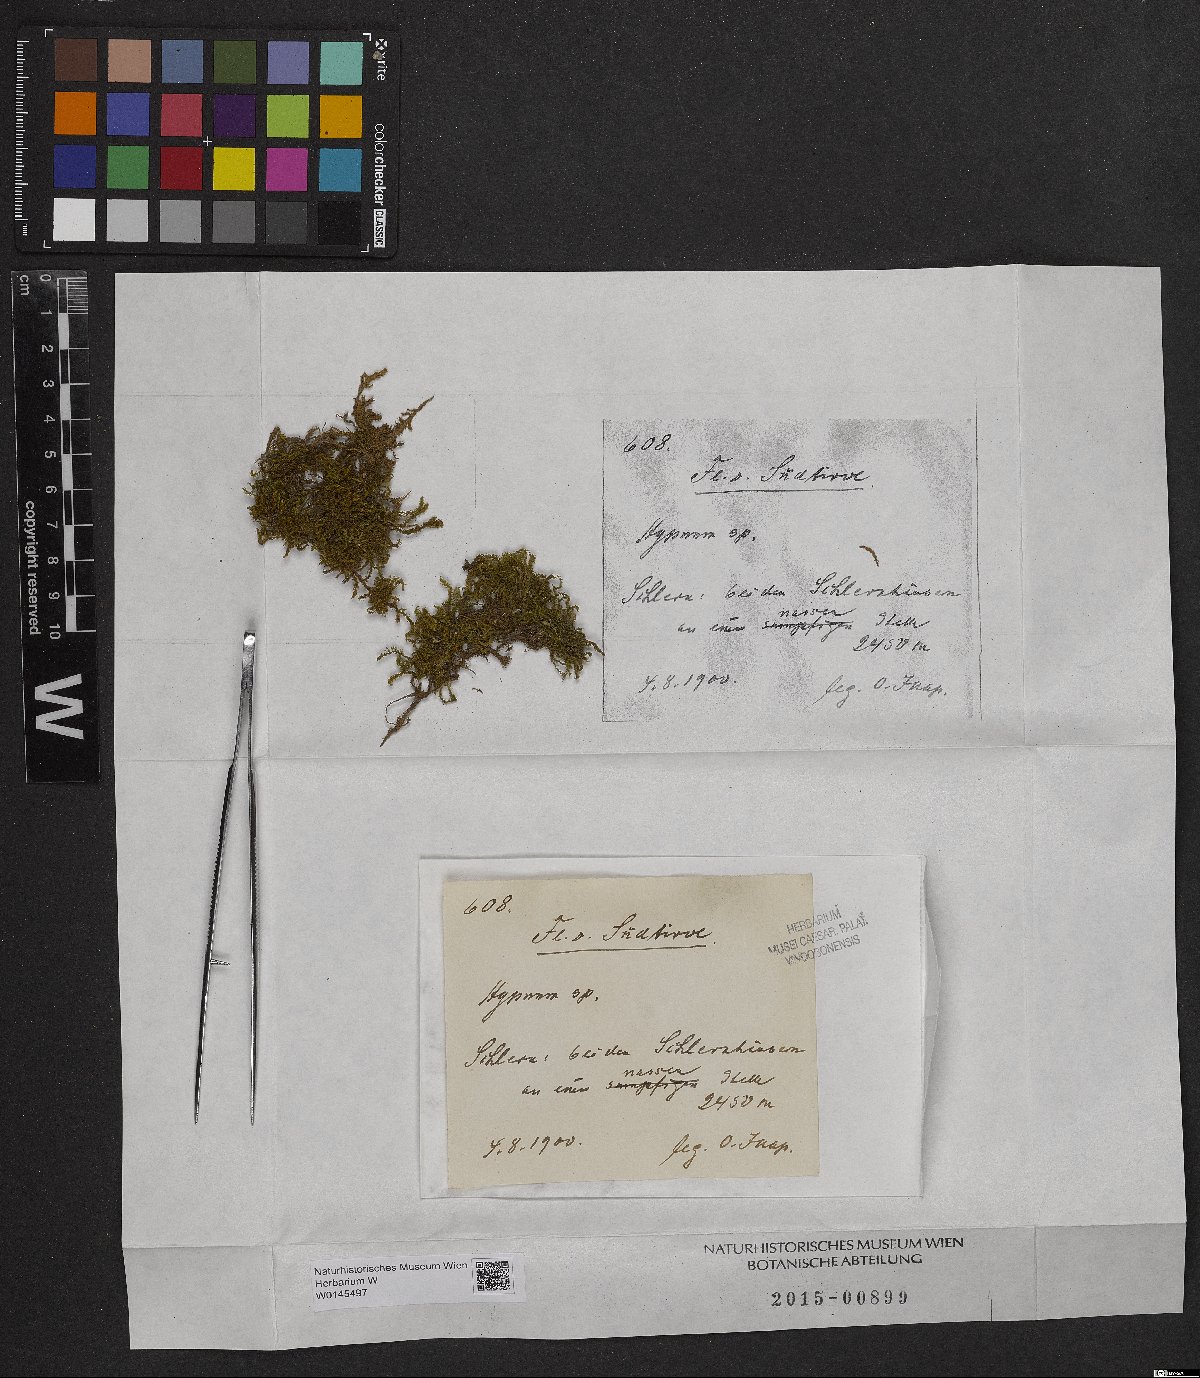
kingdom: Plantae
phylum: Bryophyta
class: Bryopsida
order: Hypnales
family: Hypnaceae
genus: Hypnum
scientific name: Hypnum
